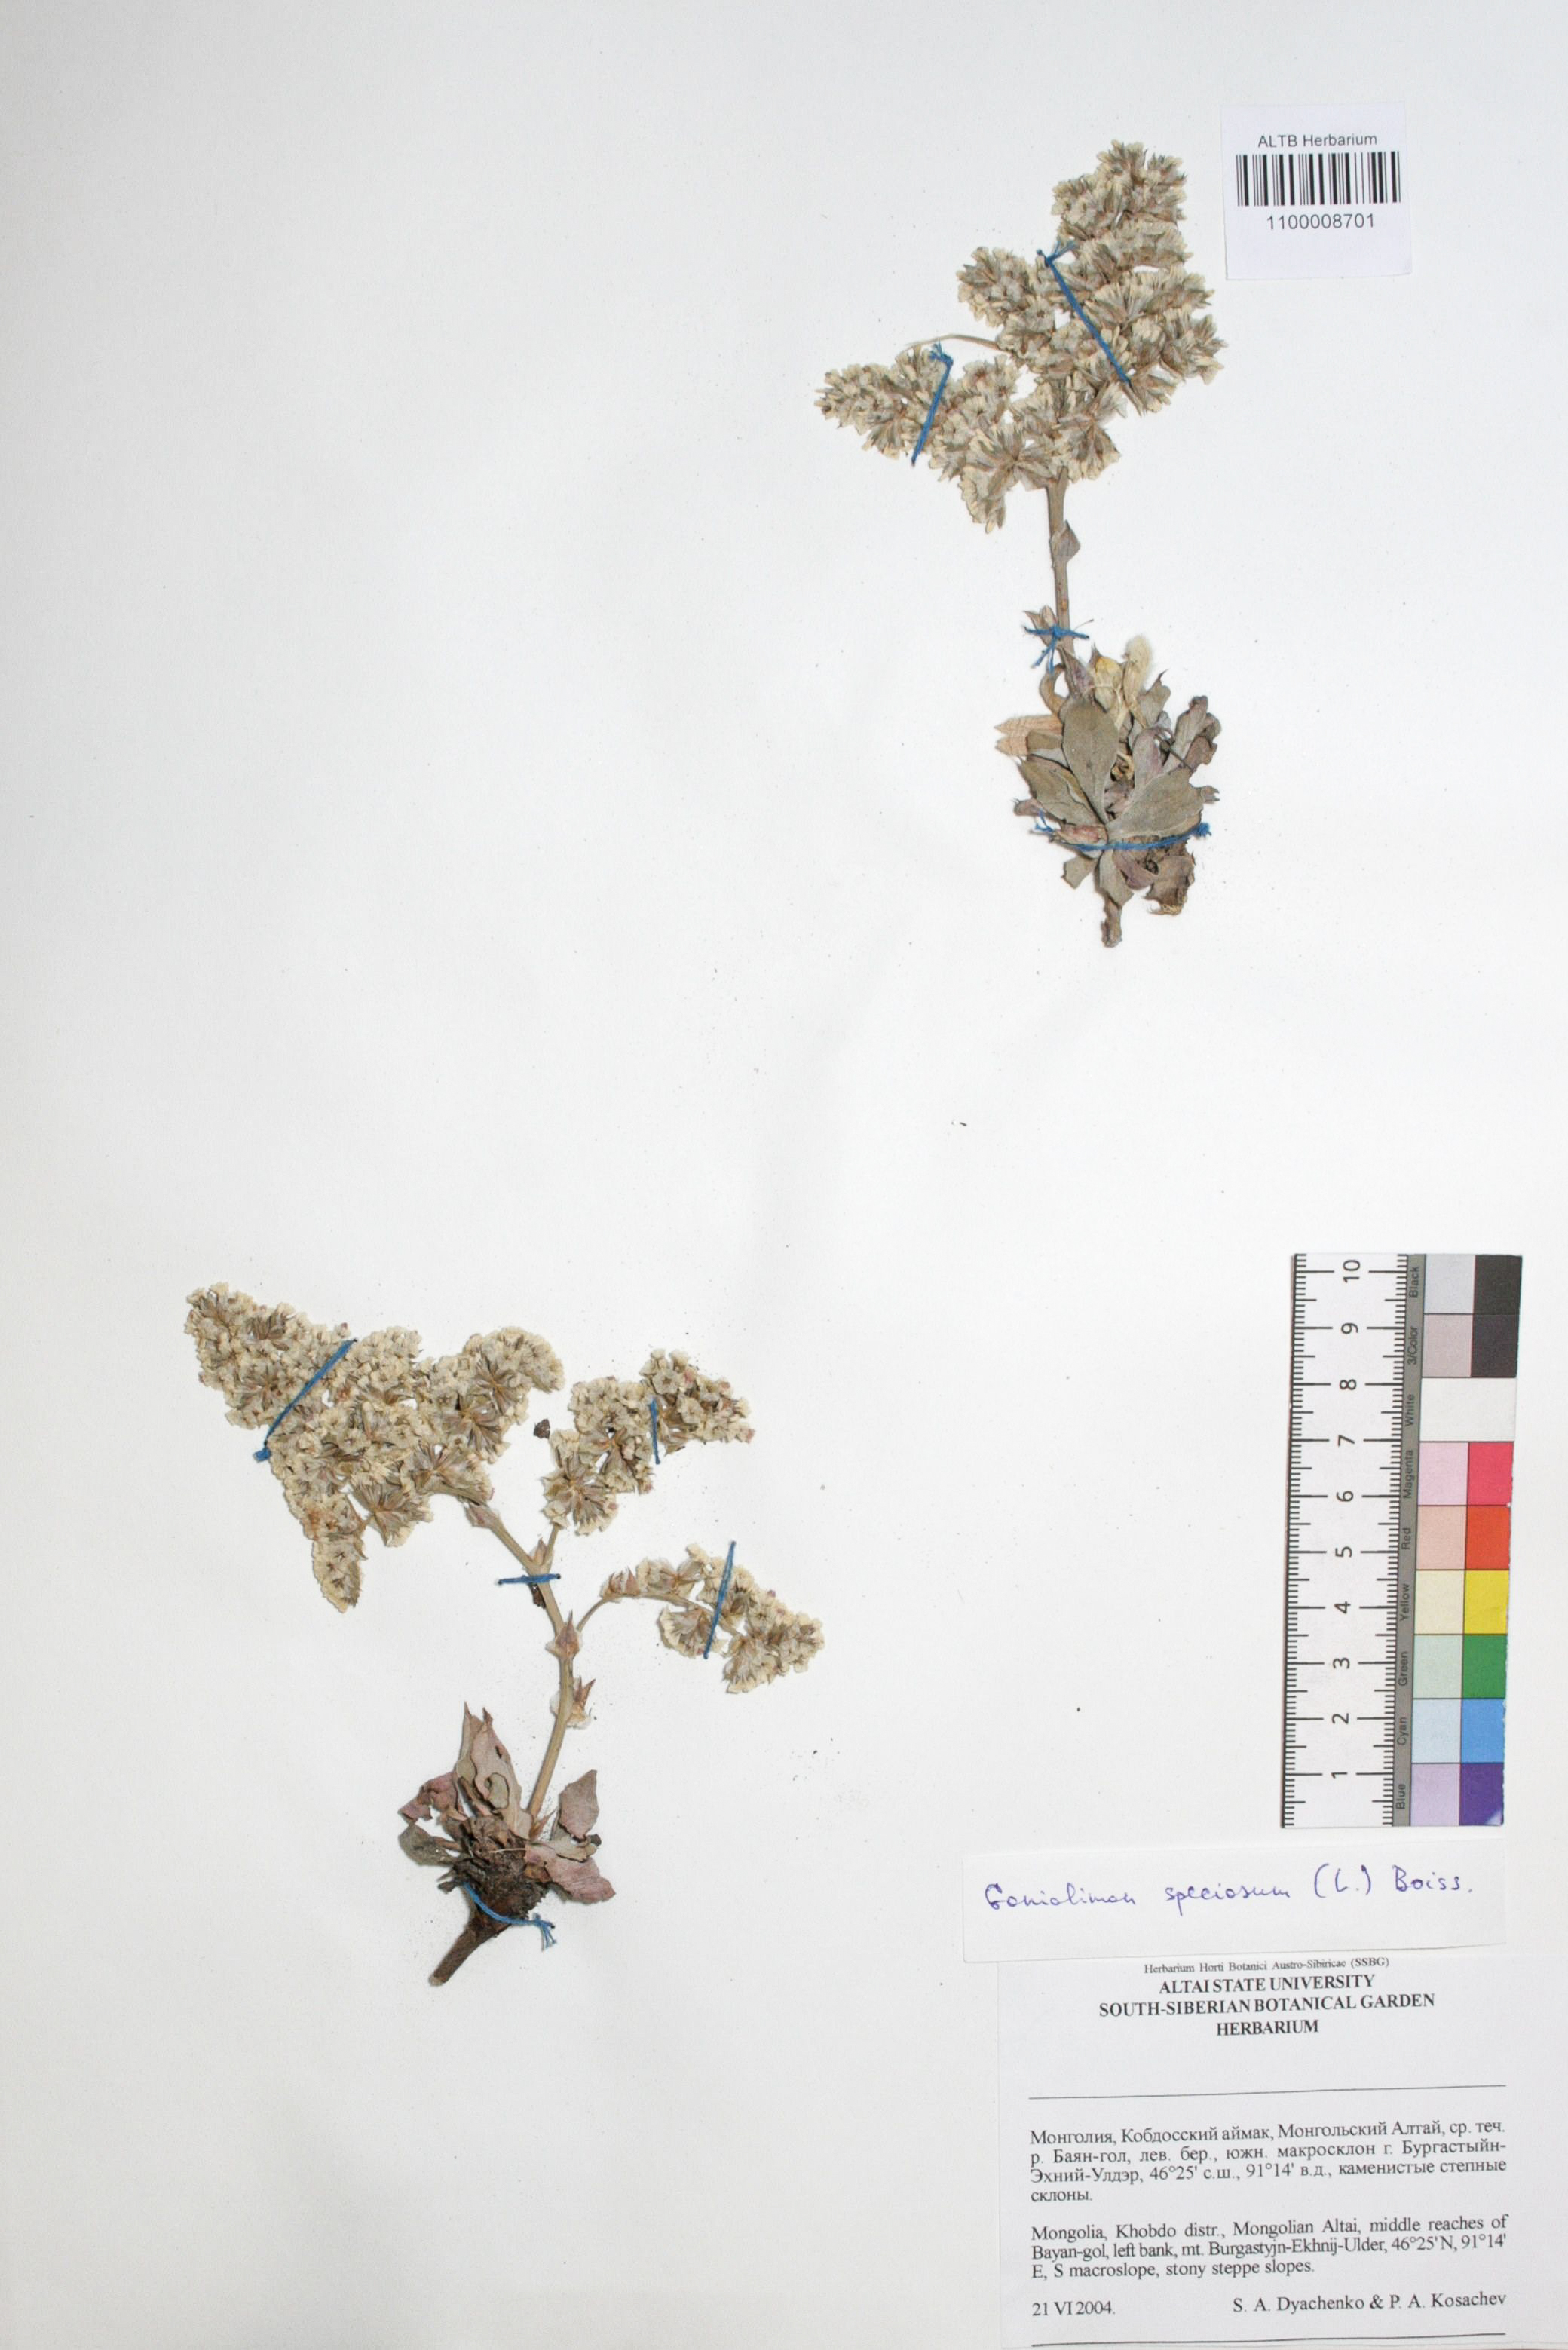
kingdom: Plantae
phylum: Tracheophyta
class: Magnoliopsida
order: Caryophyllales
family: Plumbaginaceae
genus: Goniolimon
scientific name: Goniolimon speciosum
